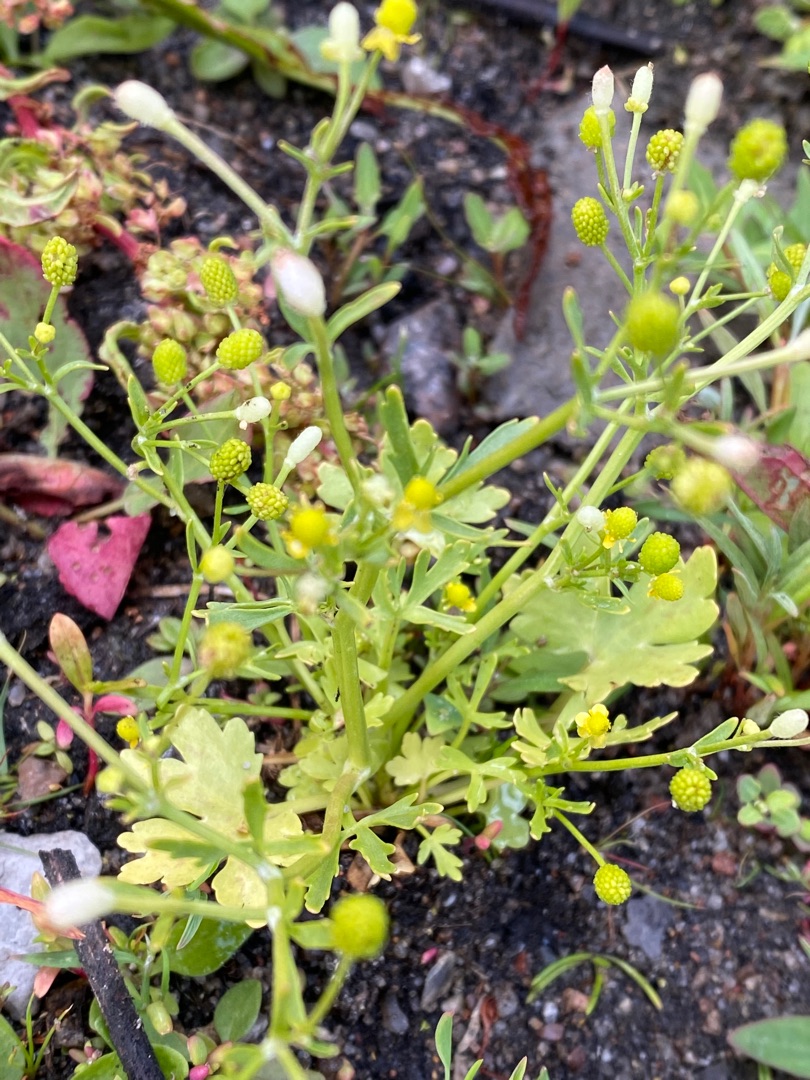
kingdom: Plantae
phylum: Tracheophyta
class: Magnoliopsida
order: Ranunculales
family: Ranunculaceae
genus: Ranunculus
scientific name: Ranunculus sceleratus
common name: Tigger-ranunkel
